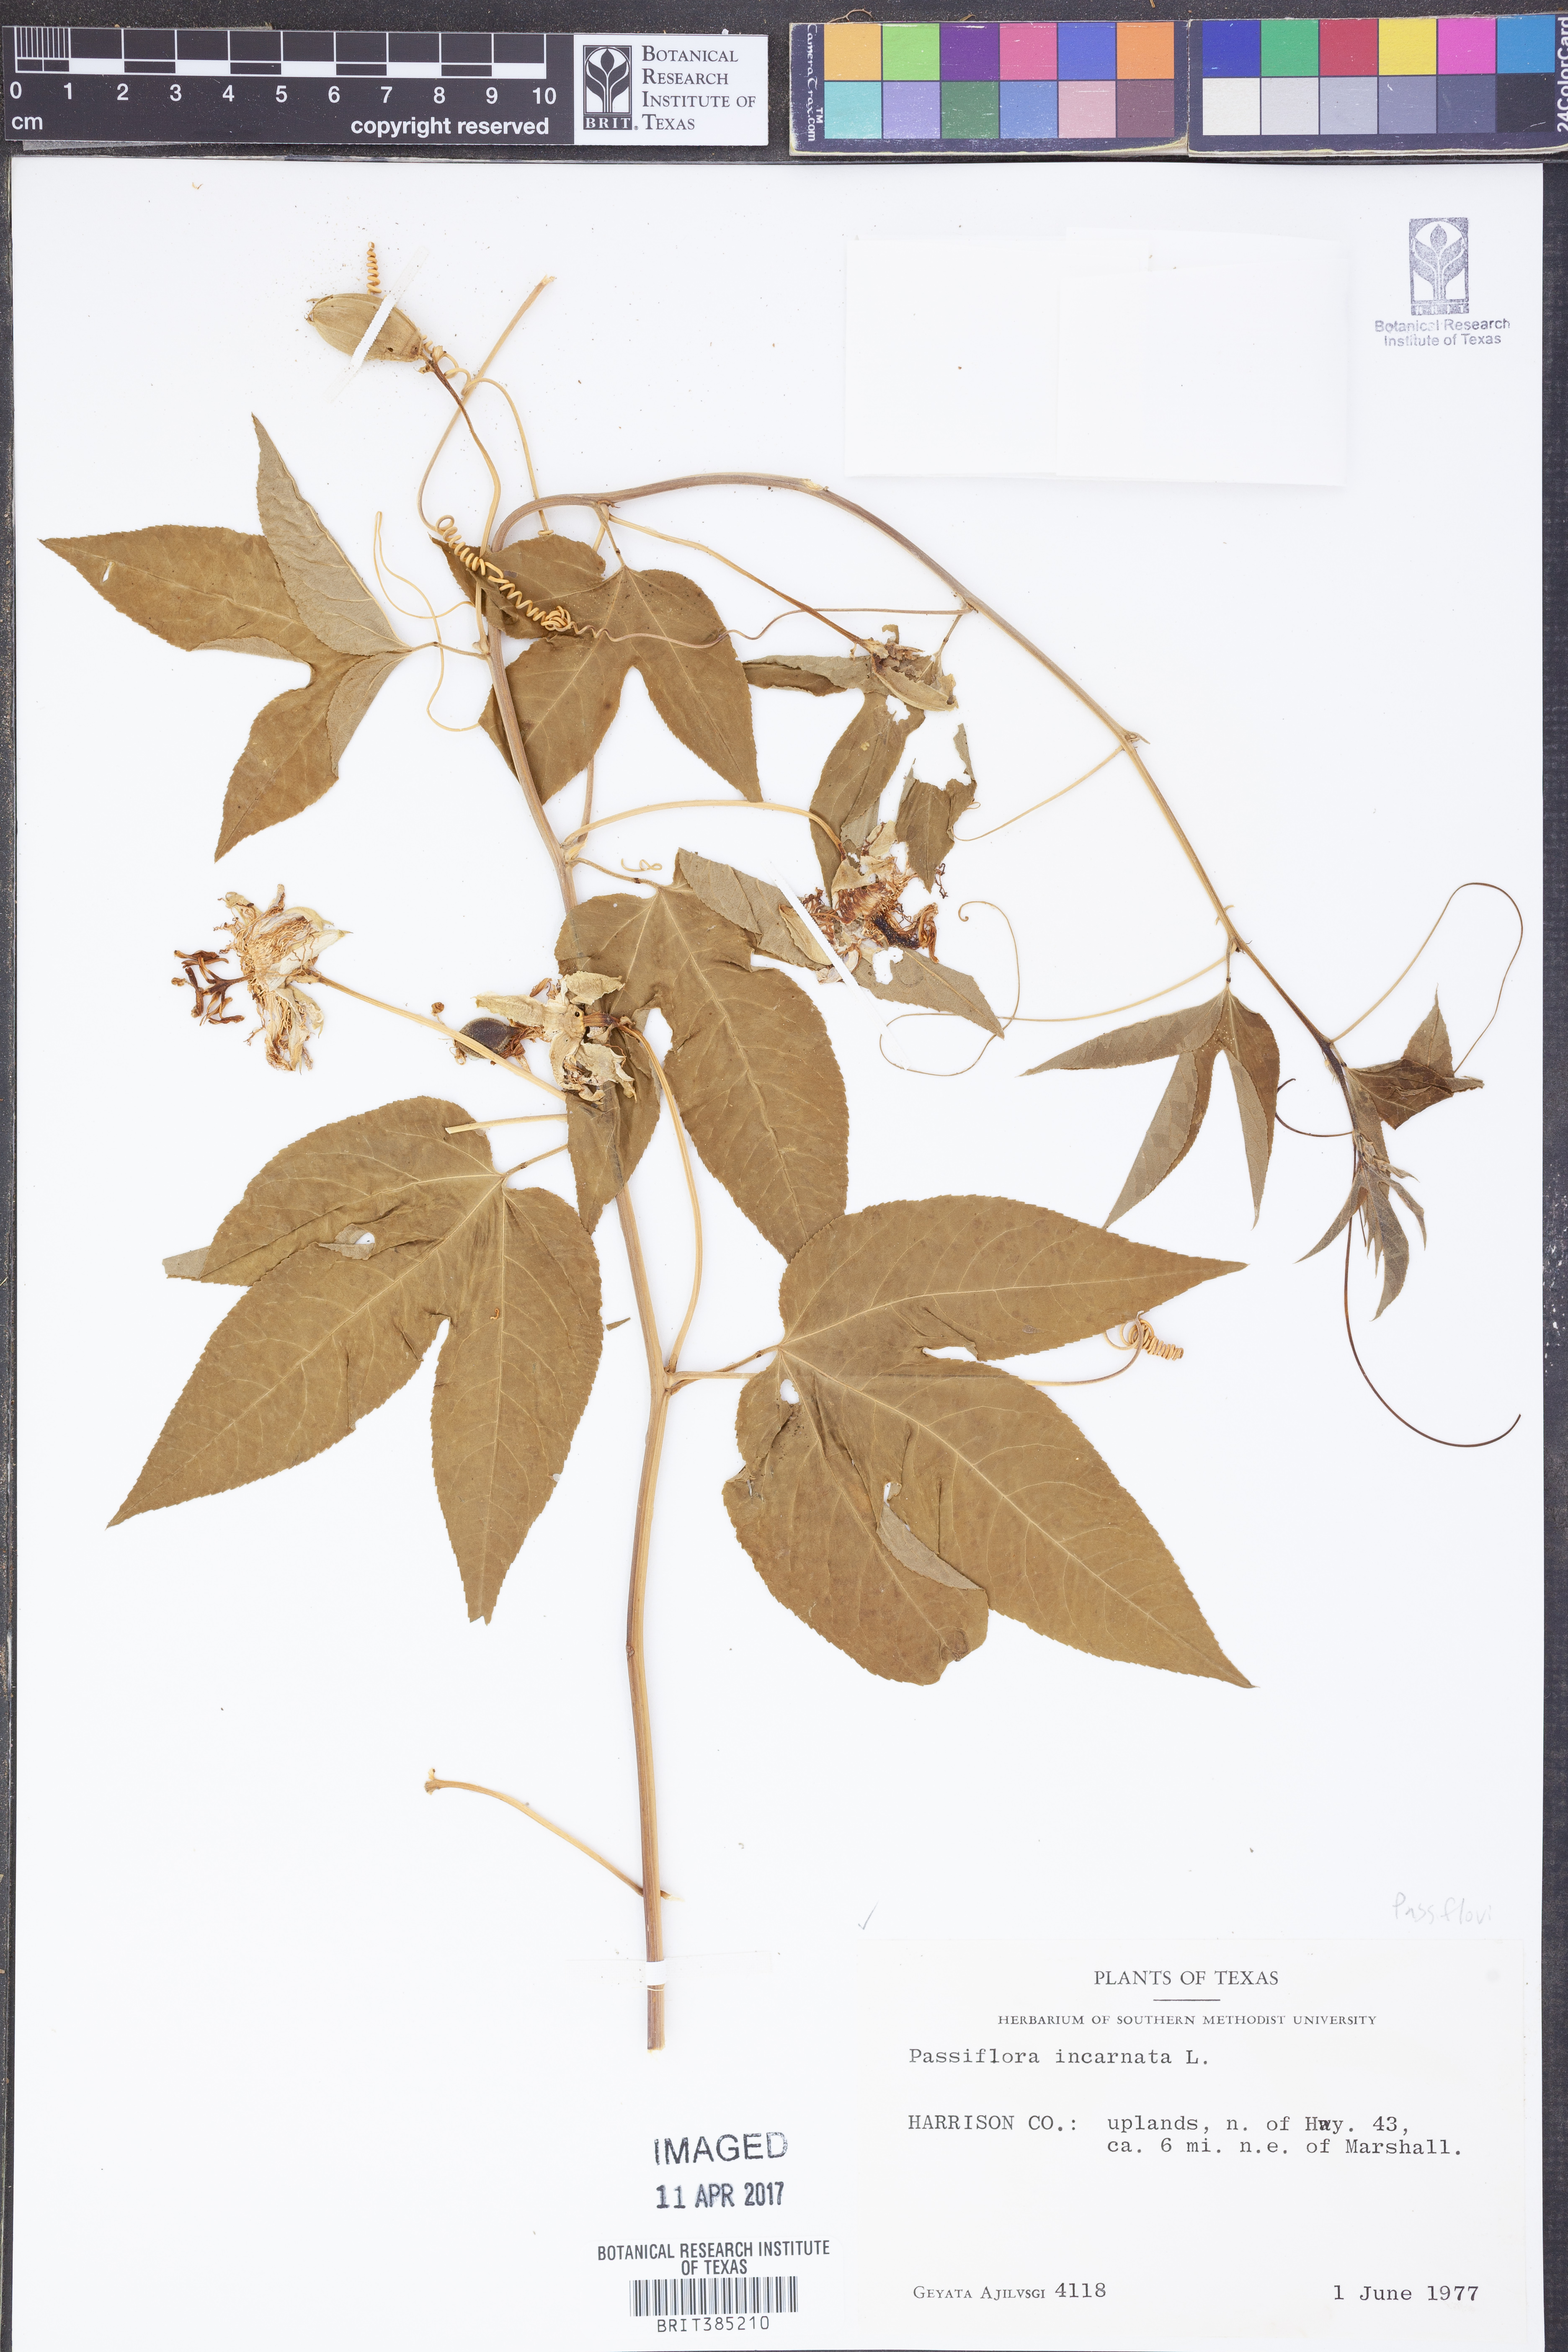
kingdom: Plantae
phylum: Tracheophyta
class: Magnoliopsida
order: Malpighiales
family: Passifloraceae
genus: Passiflora
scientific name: Passiflora incarnata
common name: Apricot-vine
